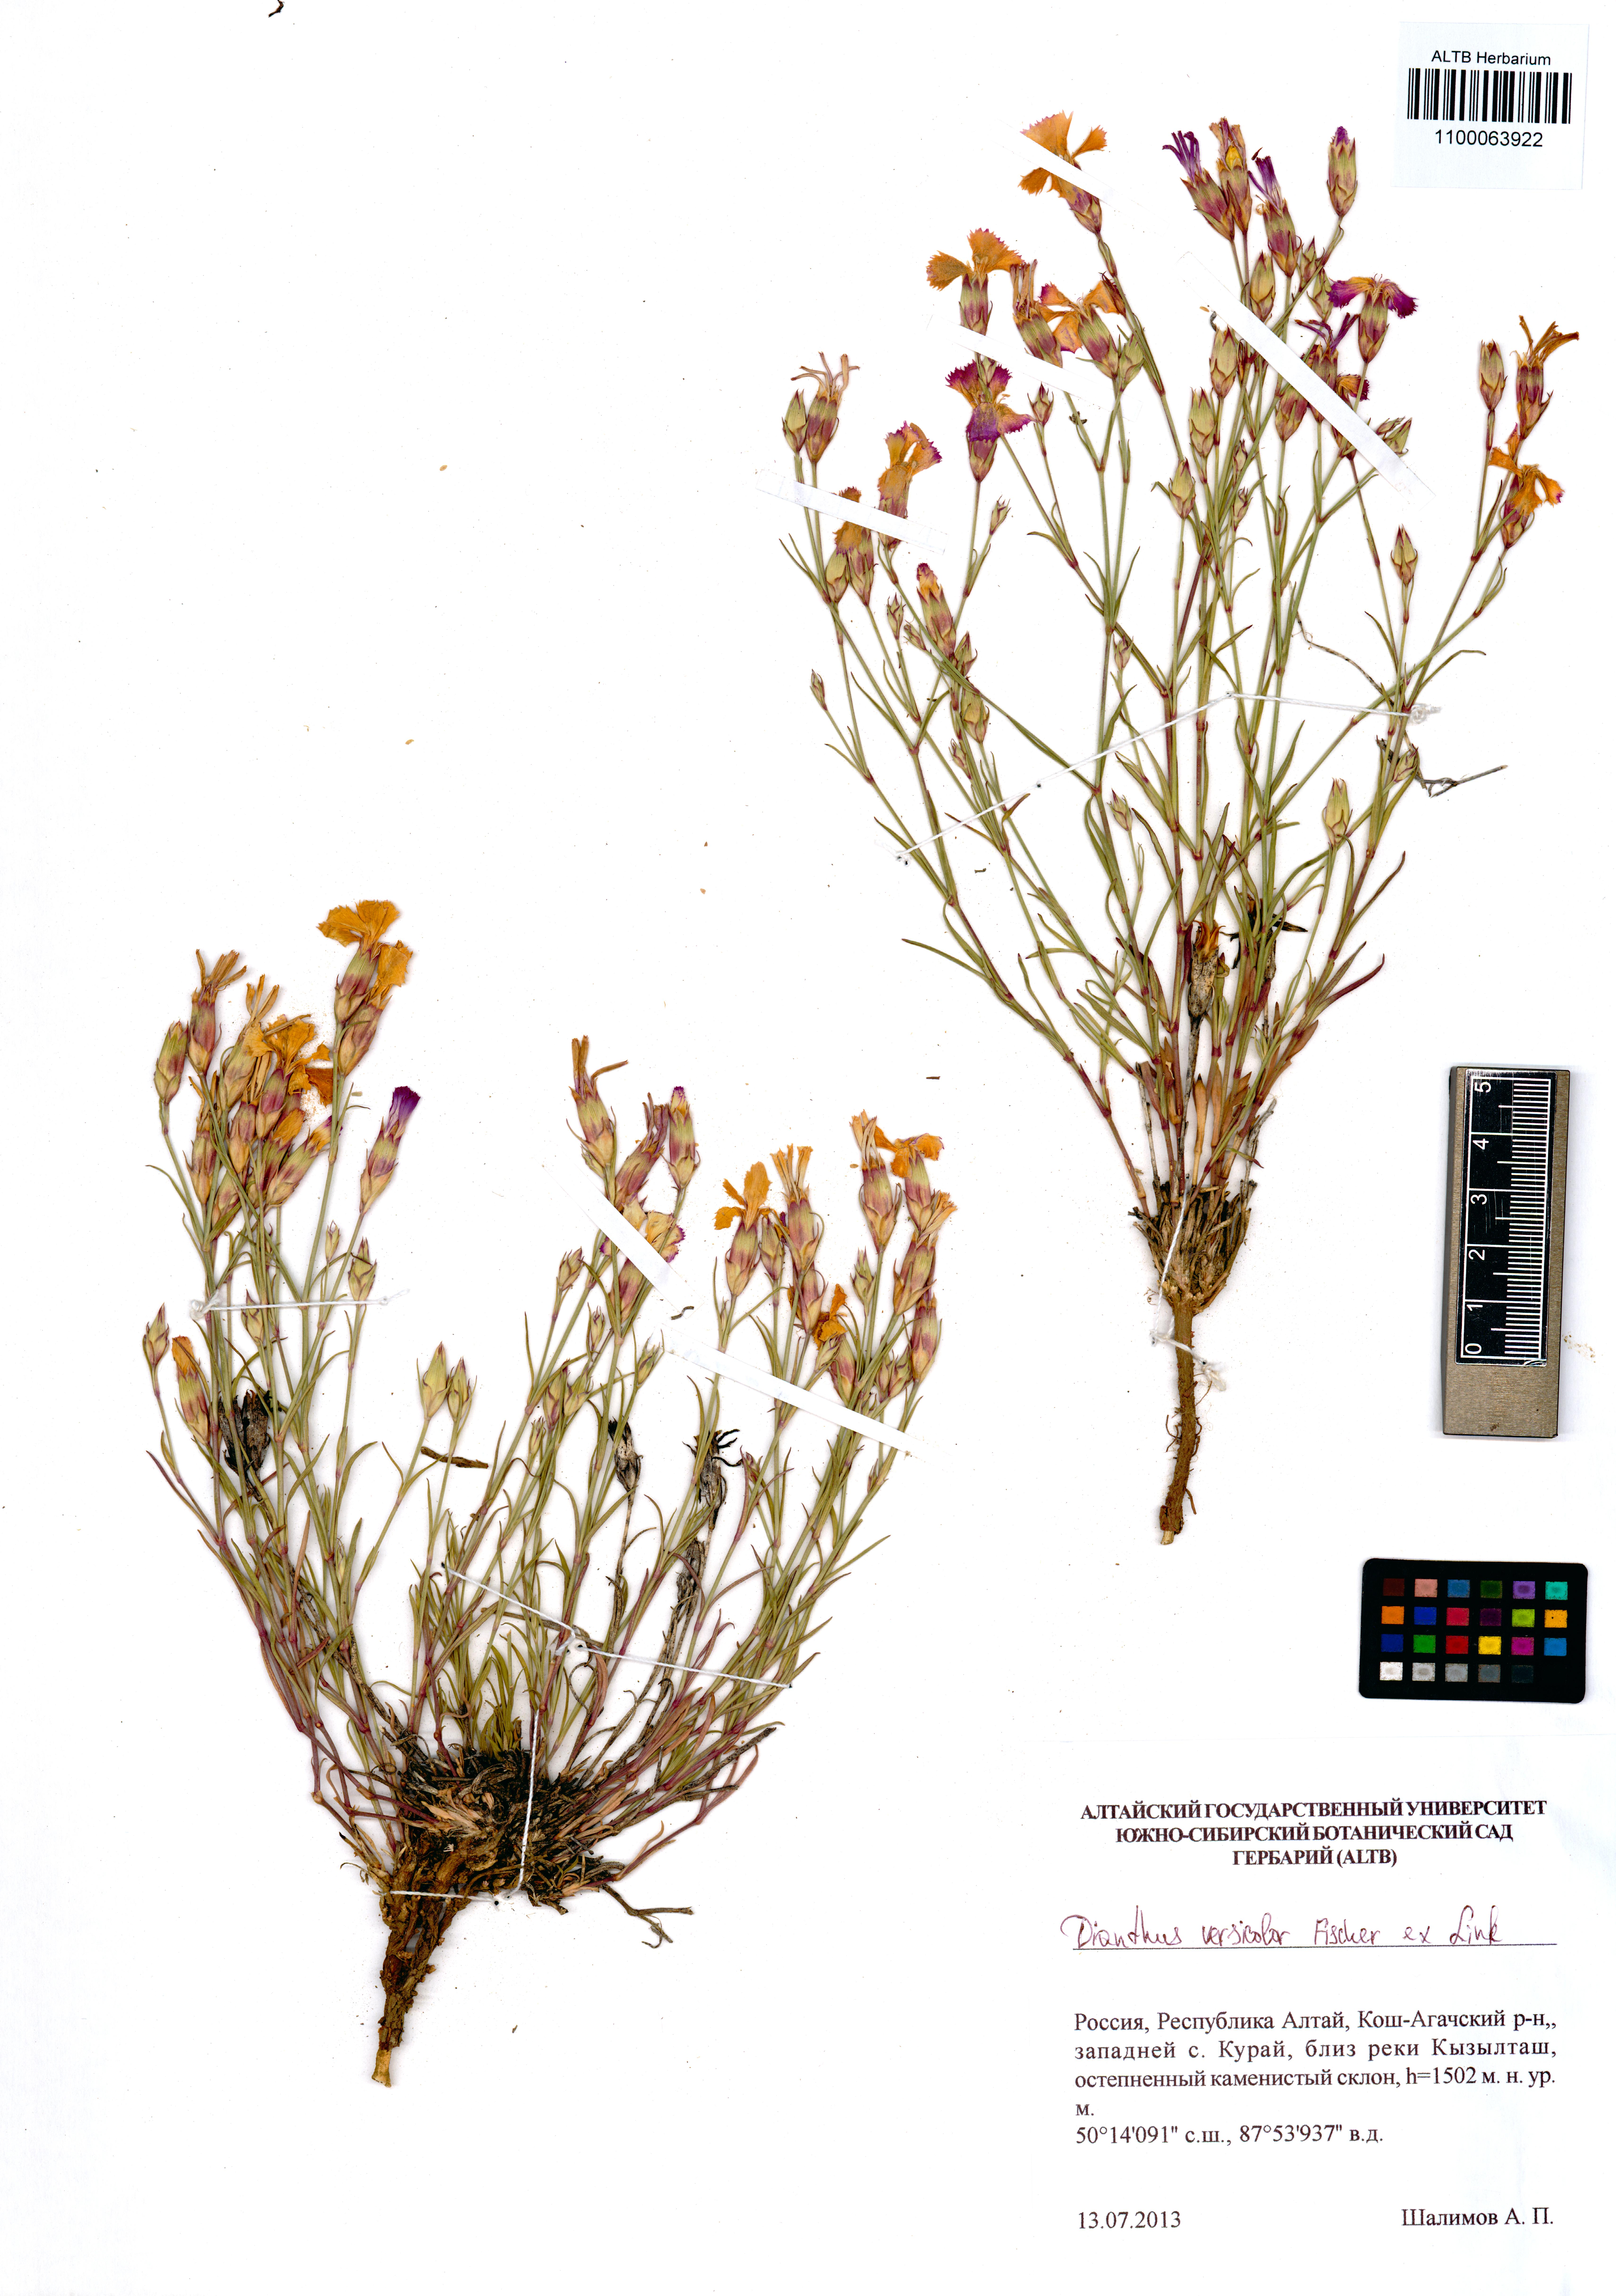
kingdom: Plantae
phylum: Tracheophyta
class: Magnoliopsida
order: Caryophyllales
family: Caryophyllaceae
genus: Dianthus
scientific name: Dianthus chinensis
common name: Rainbow pink
